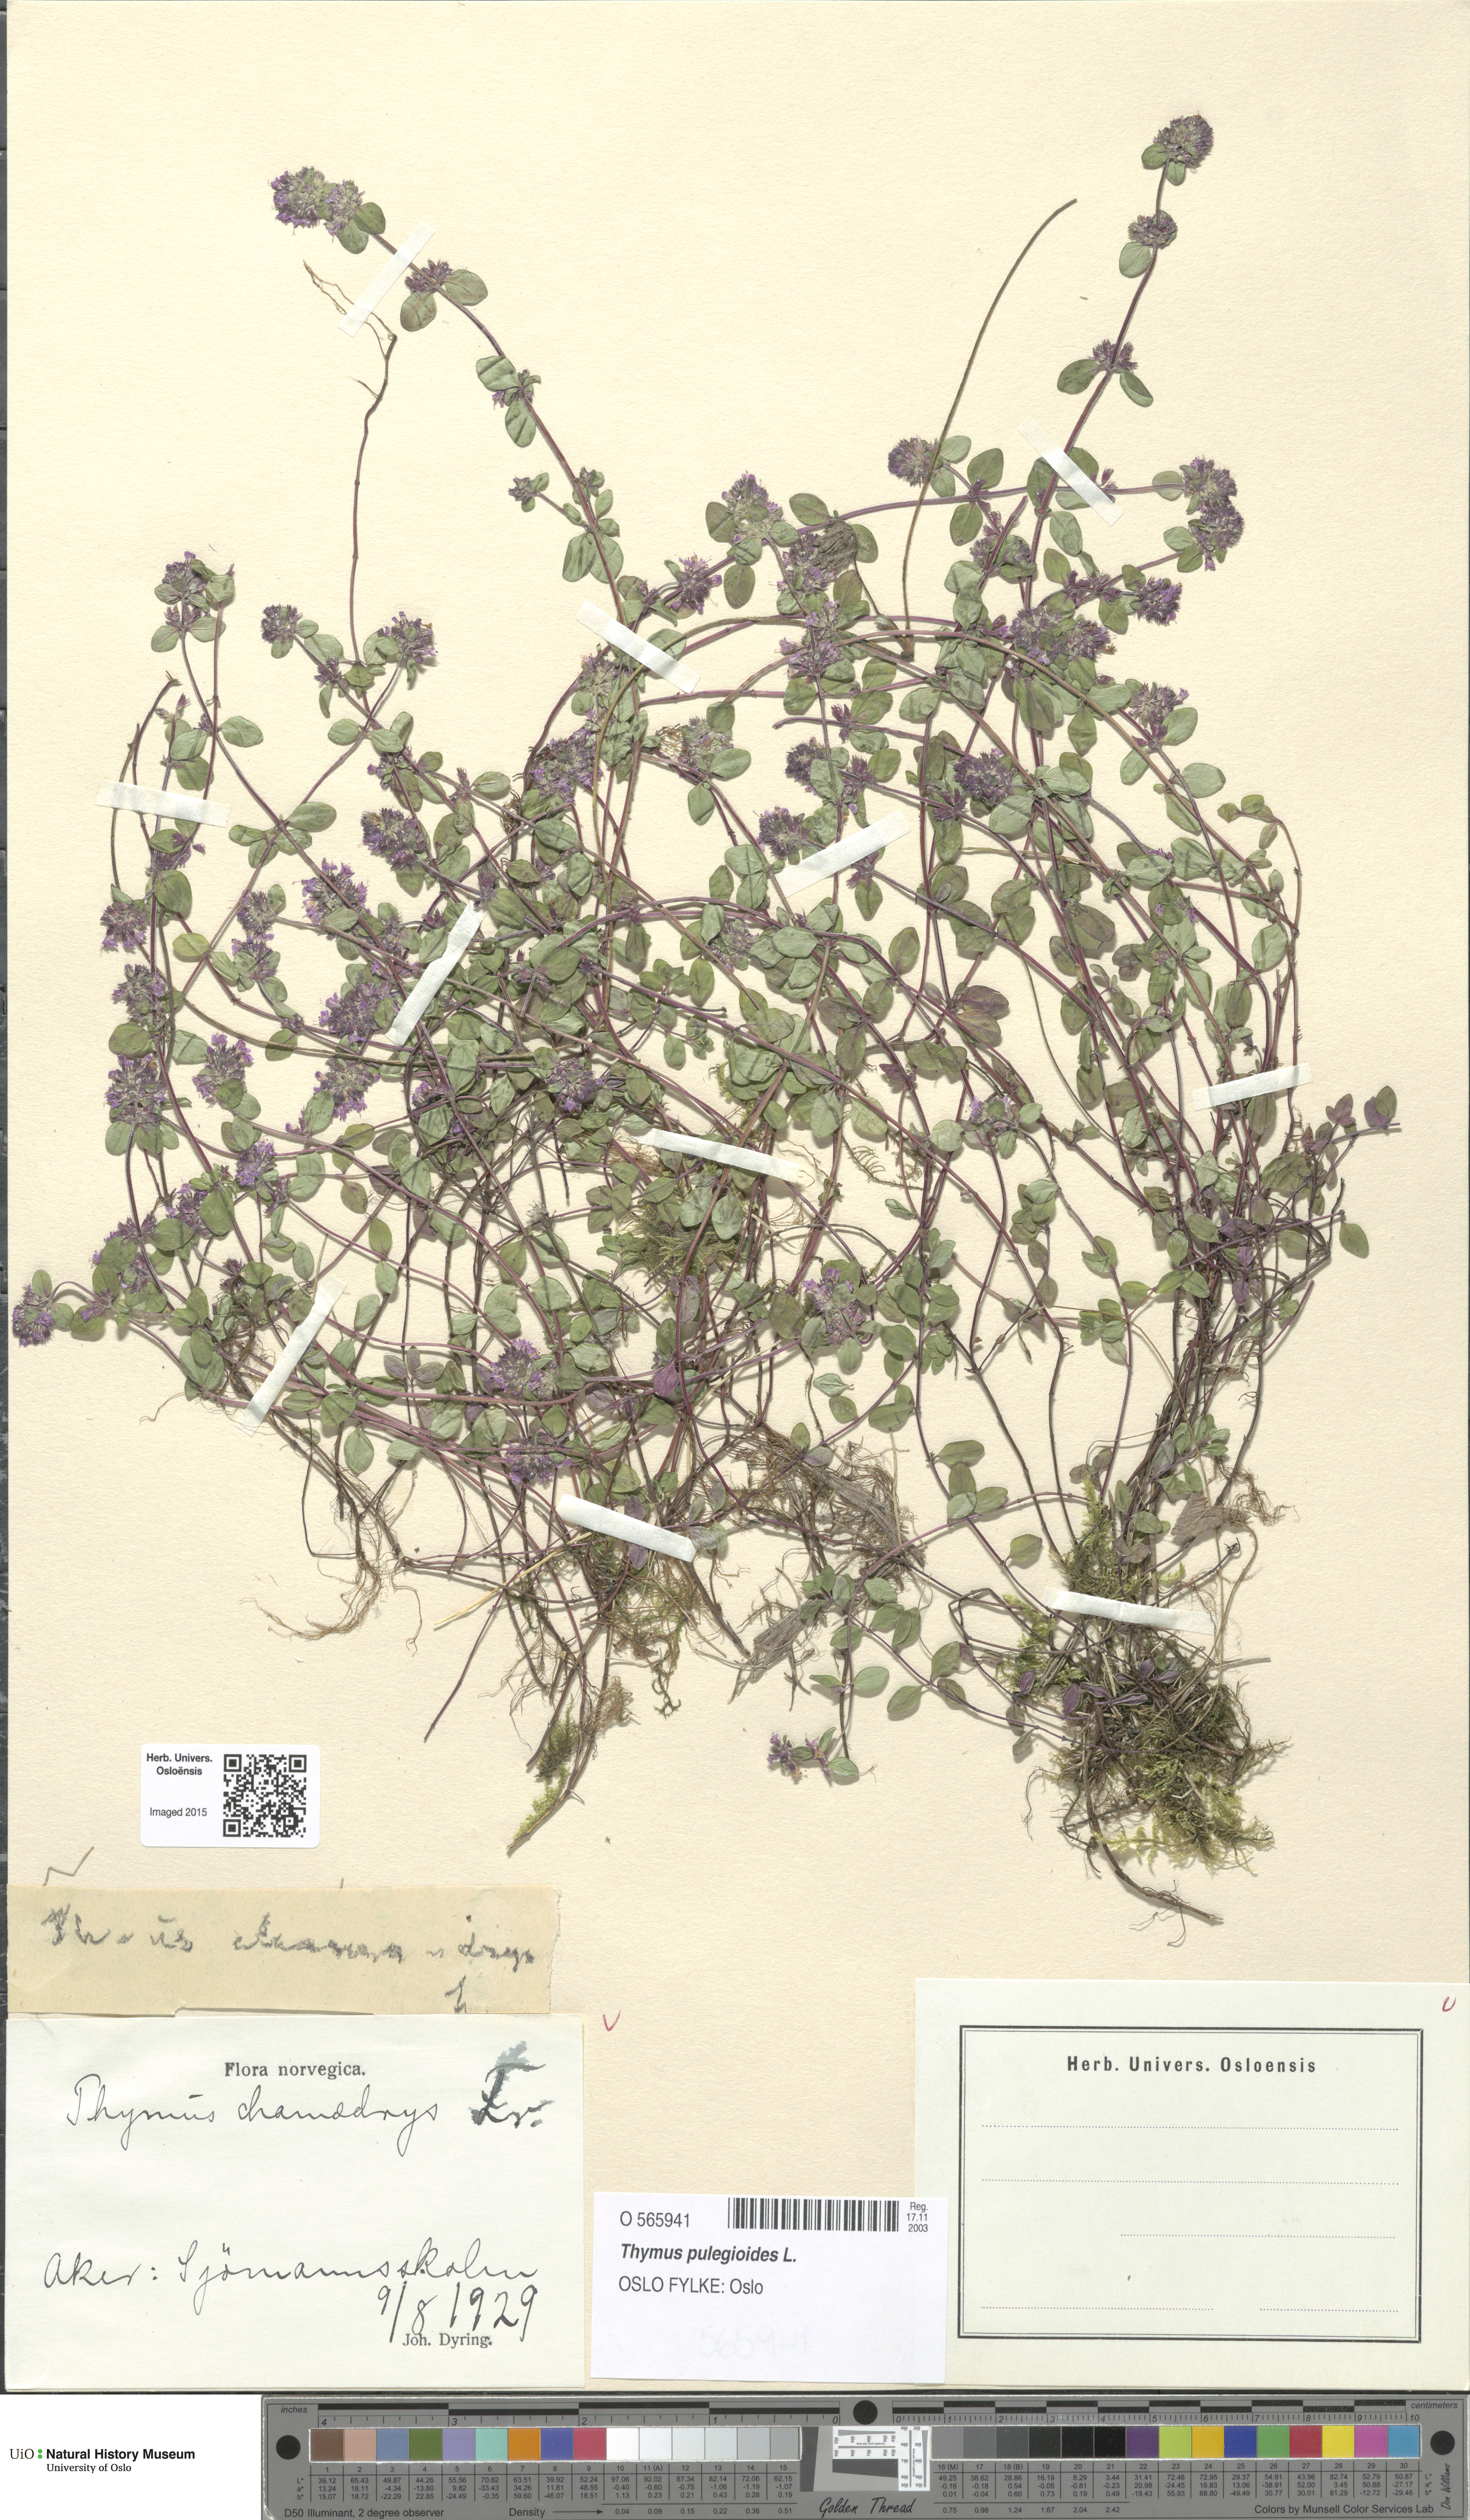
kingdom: Plantae
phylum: Tracheophyta
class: Magnoliopsida
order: Lamiales
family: Lamiaceae
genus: Thymus
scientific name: Thymus pulegioides
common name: Large thyme
